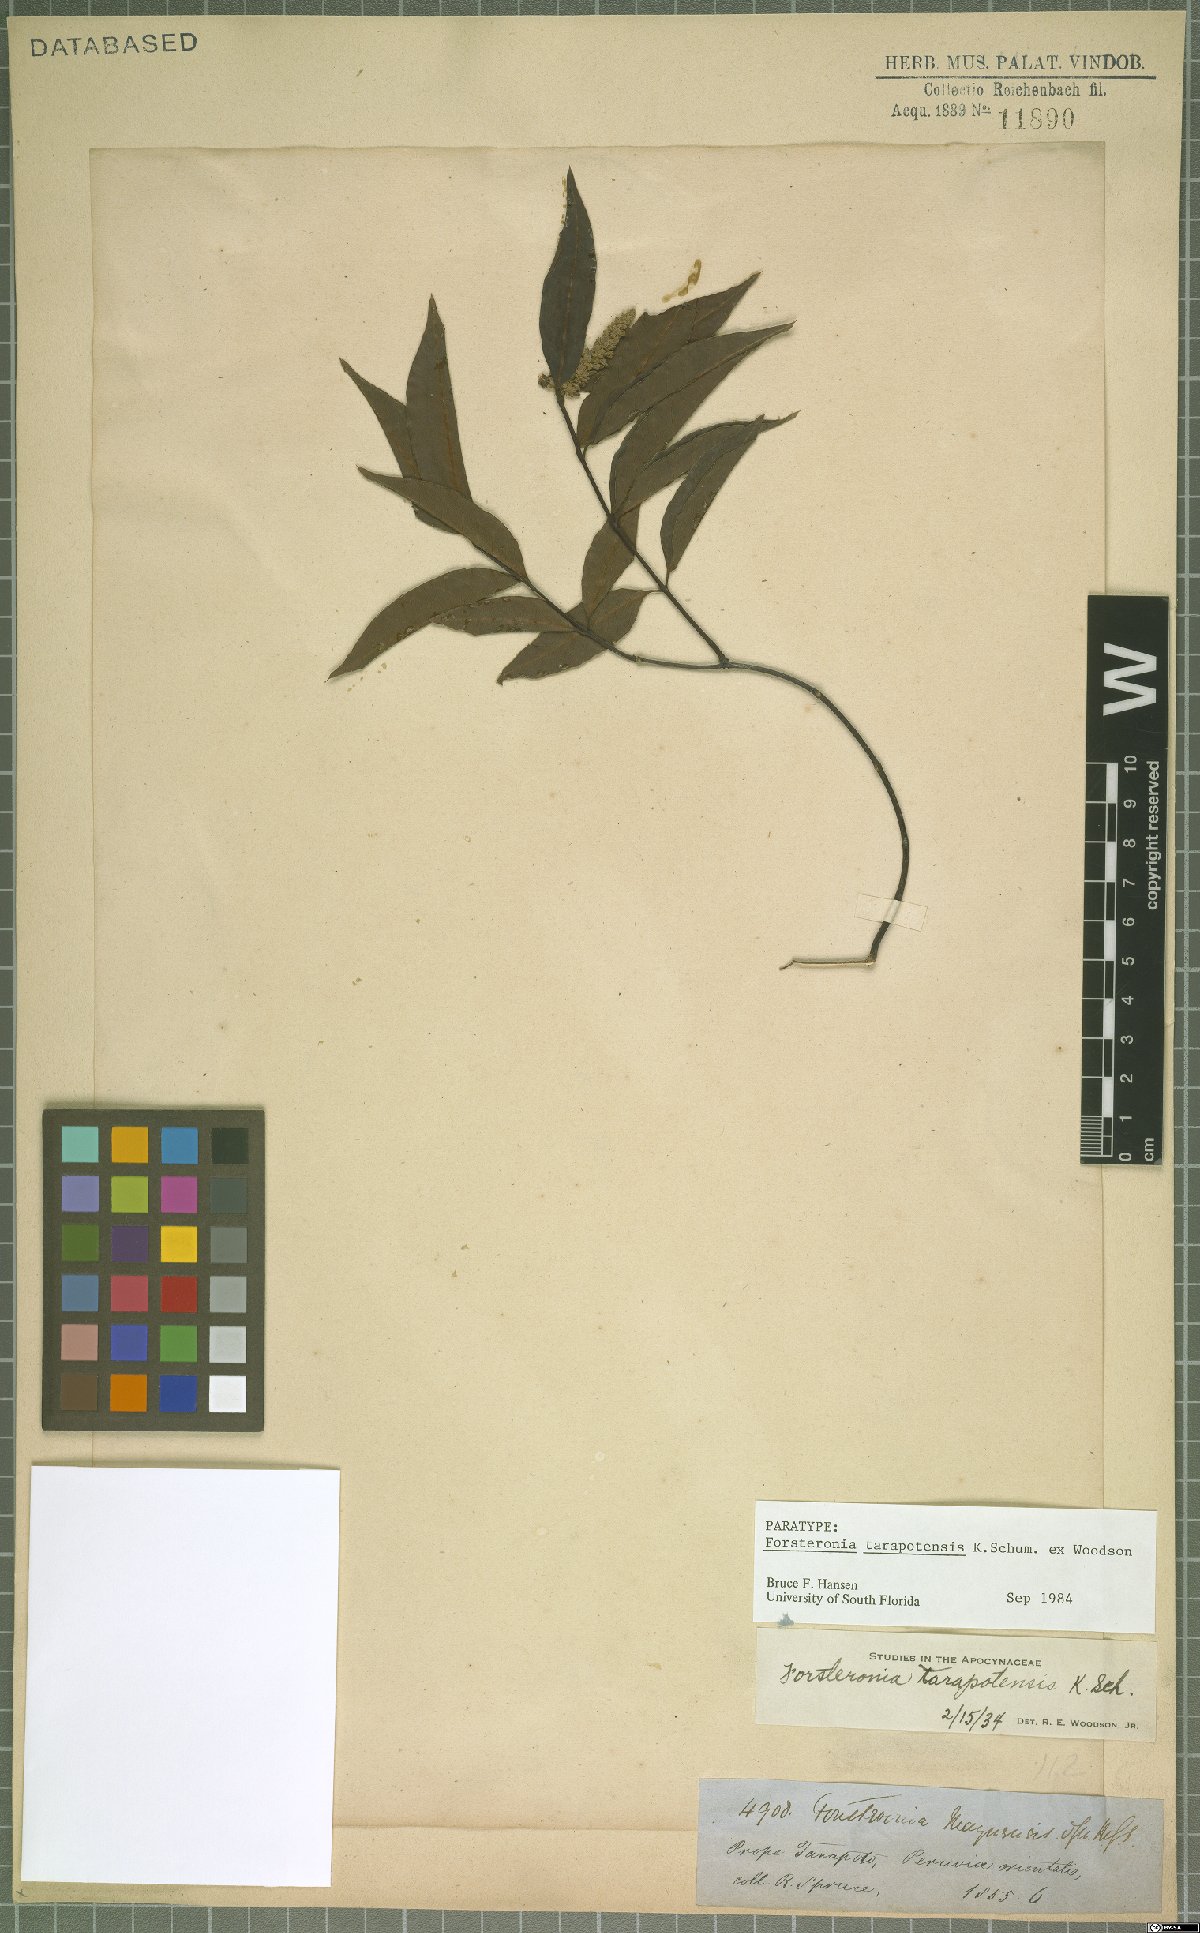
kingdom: Plantae
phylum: Tracheophyta
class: Magnoliopsida
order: Gentianales
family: Apocynaceae
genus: Forsteronia
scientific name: Forsteronia tarapotensis
